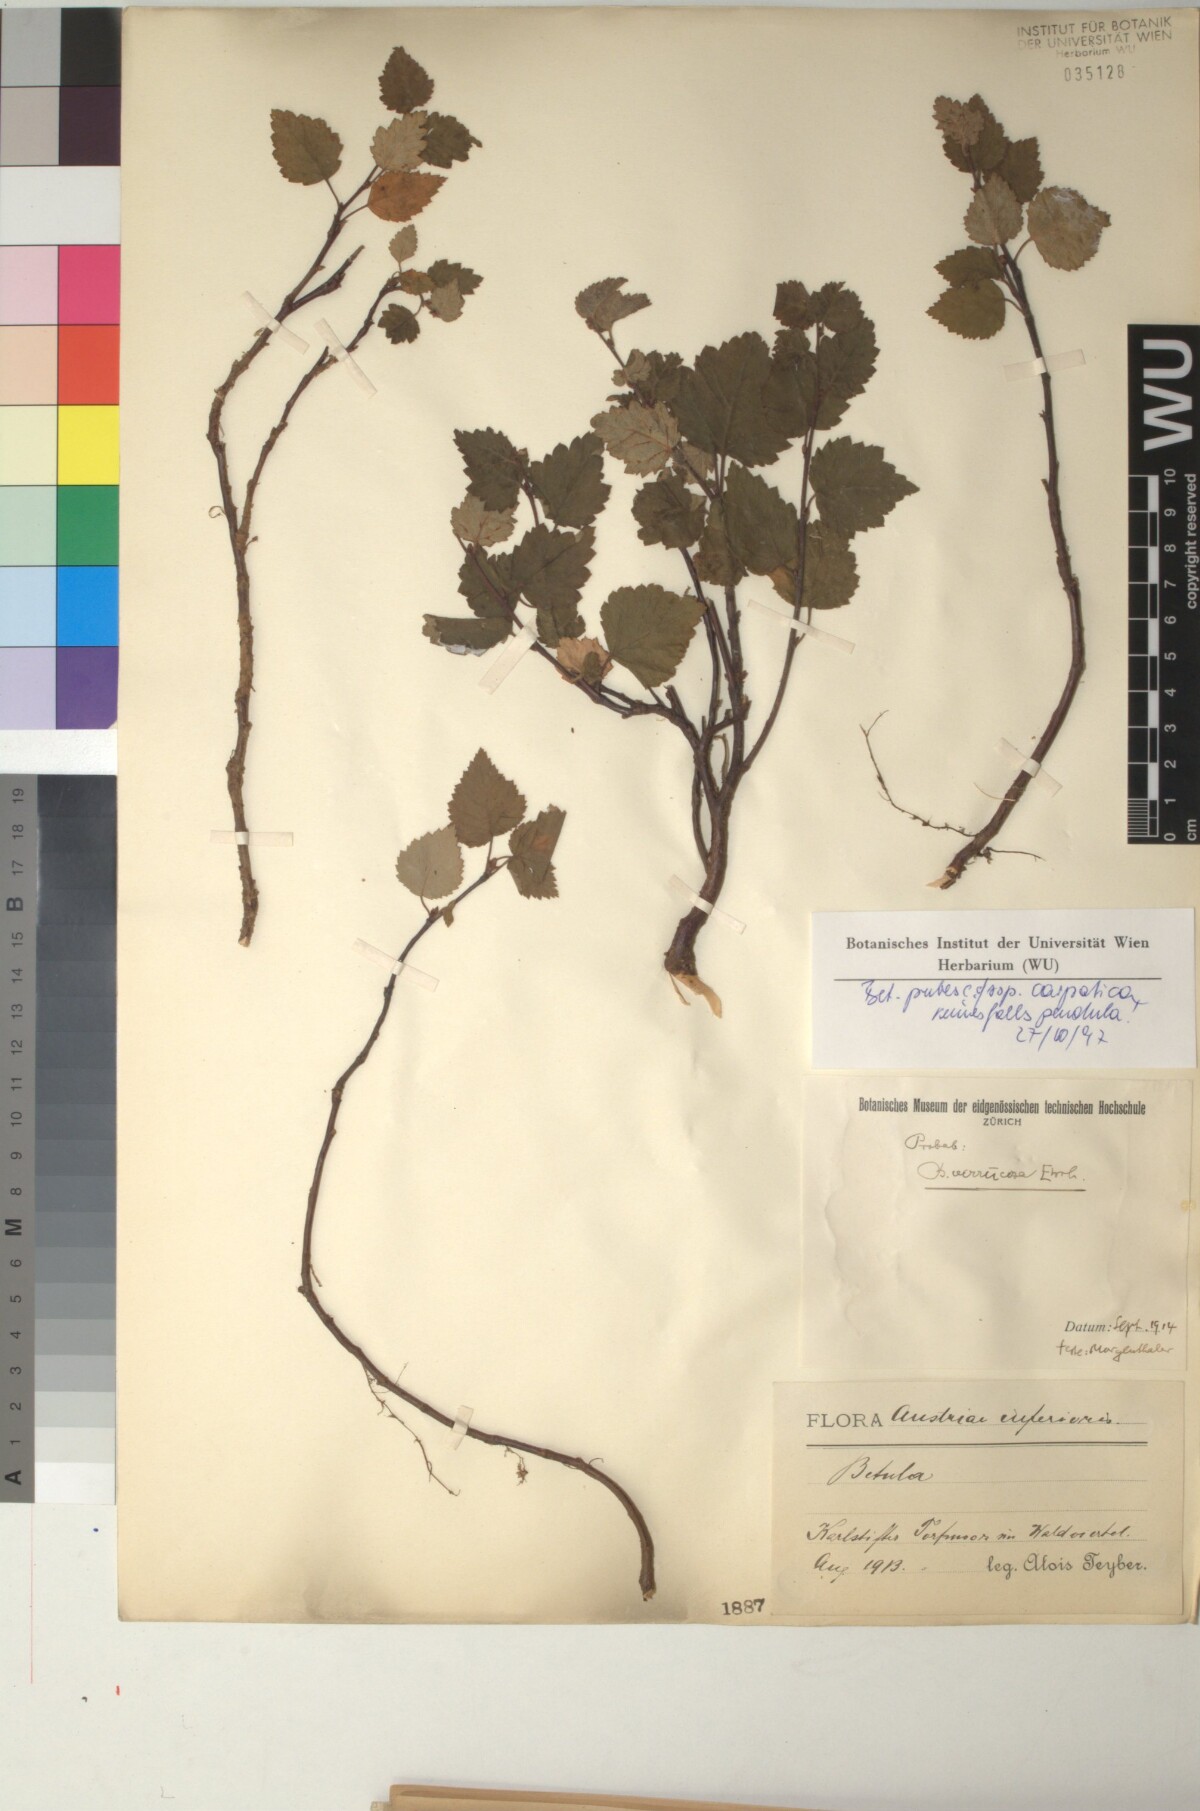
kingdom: Plantae
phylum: Tracheophyta
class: Magnoliopsida
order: Fagales
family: Betulaceae
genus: Betula
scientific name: Betula pubescens
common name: Downy birch
